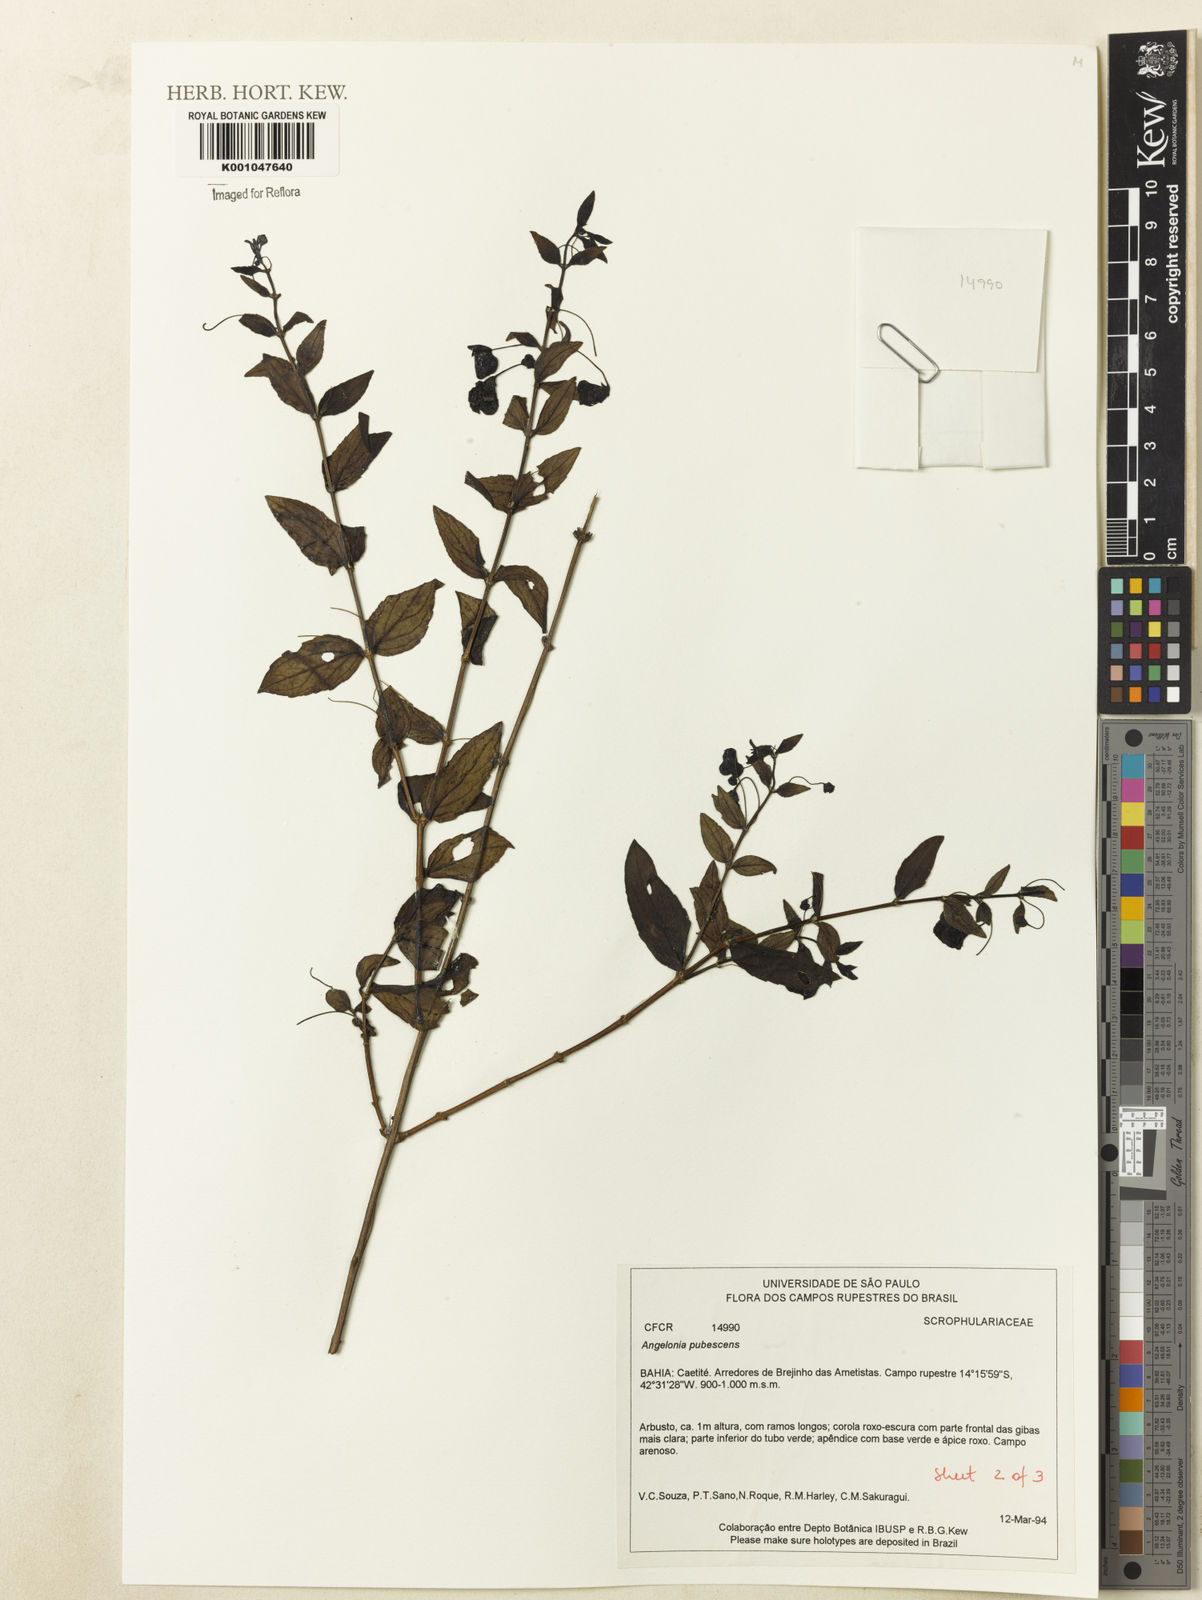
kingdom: Plantae
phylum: Tracheophyta
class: Magnoliopsida
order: Lamiales
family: Plantaginaceae
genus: Angelonia
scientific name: Angelonia campestris
